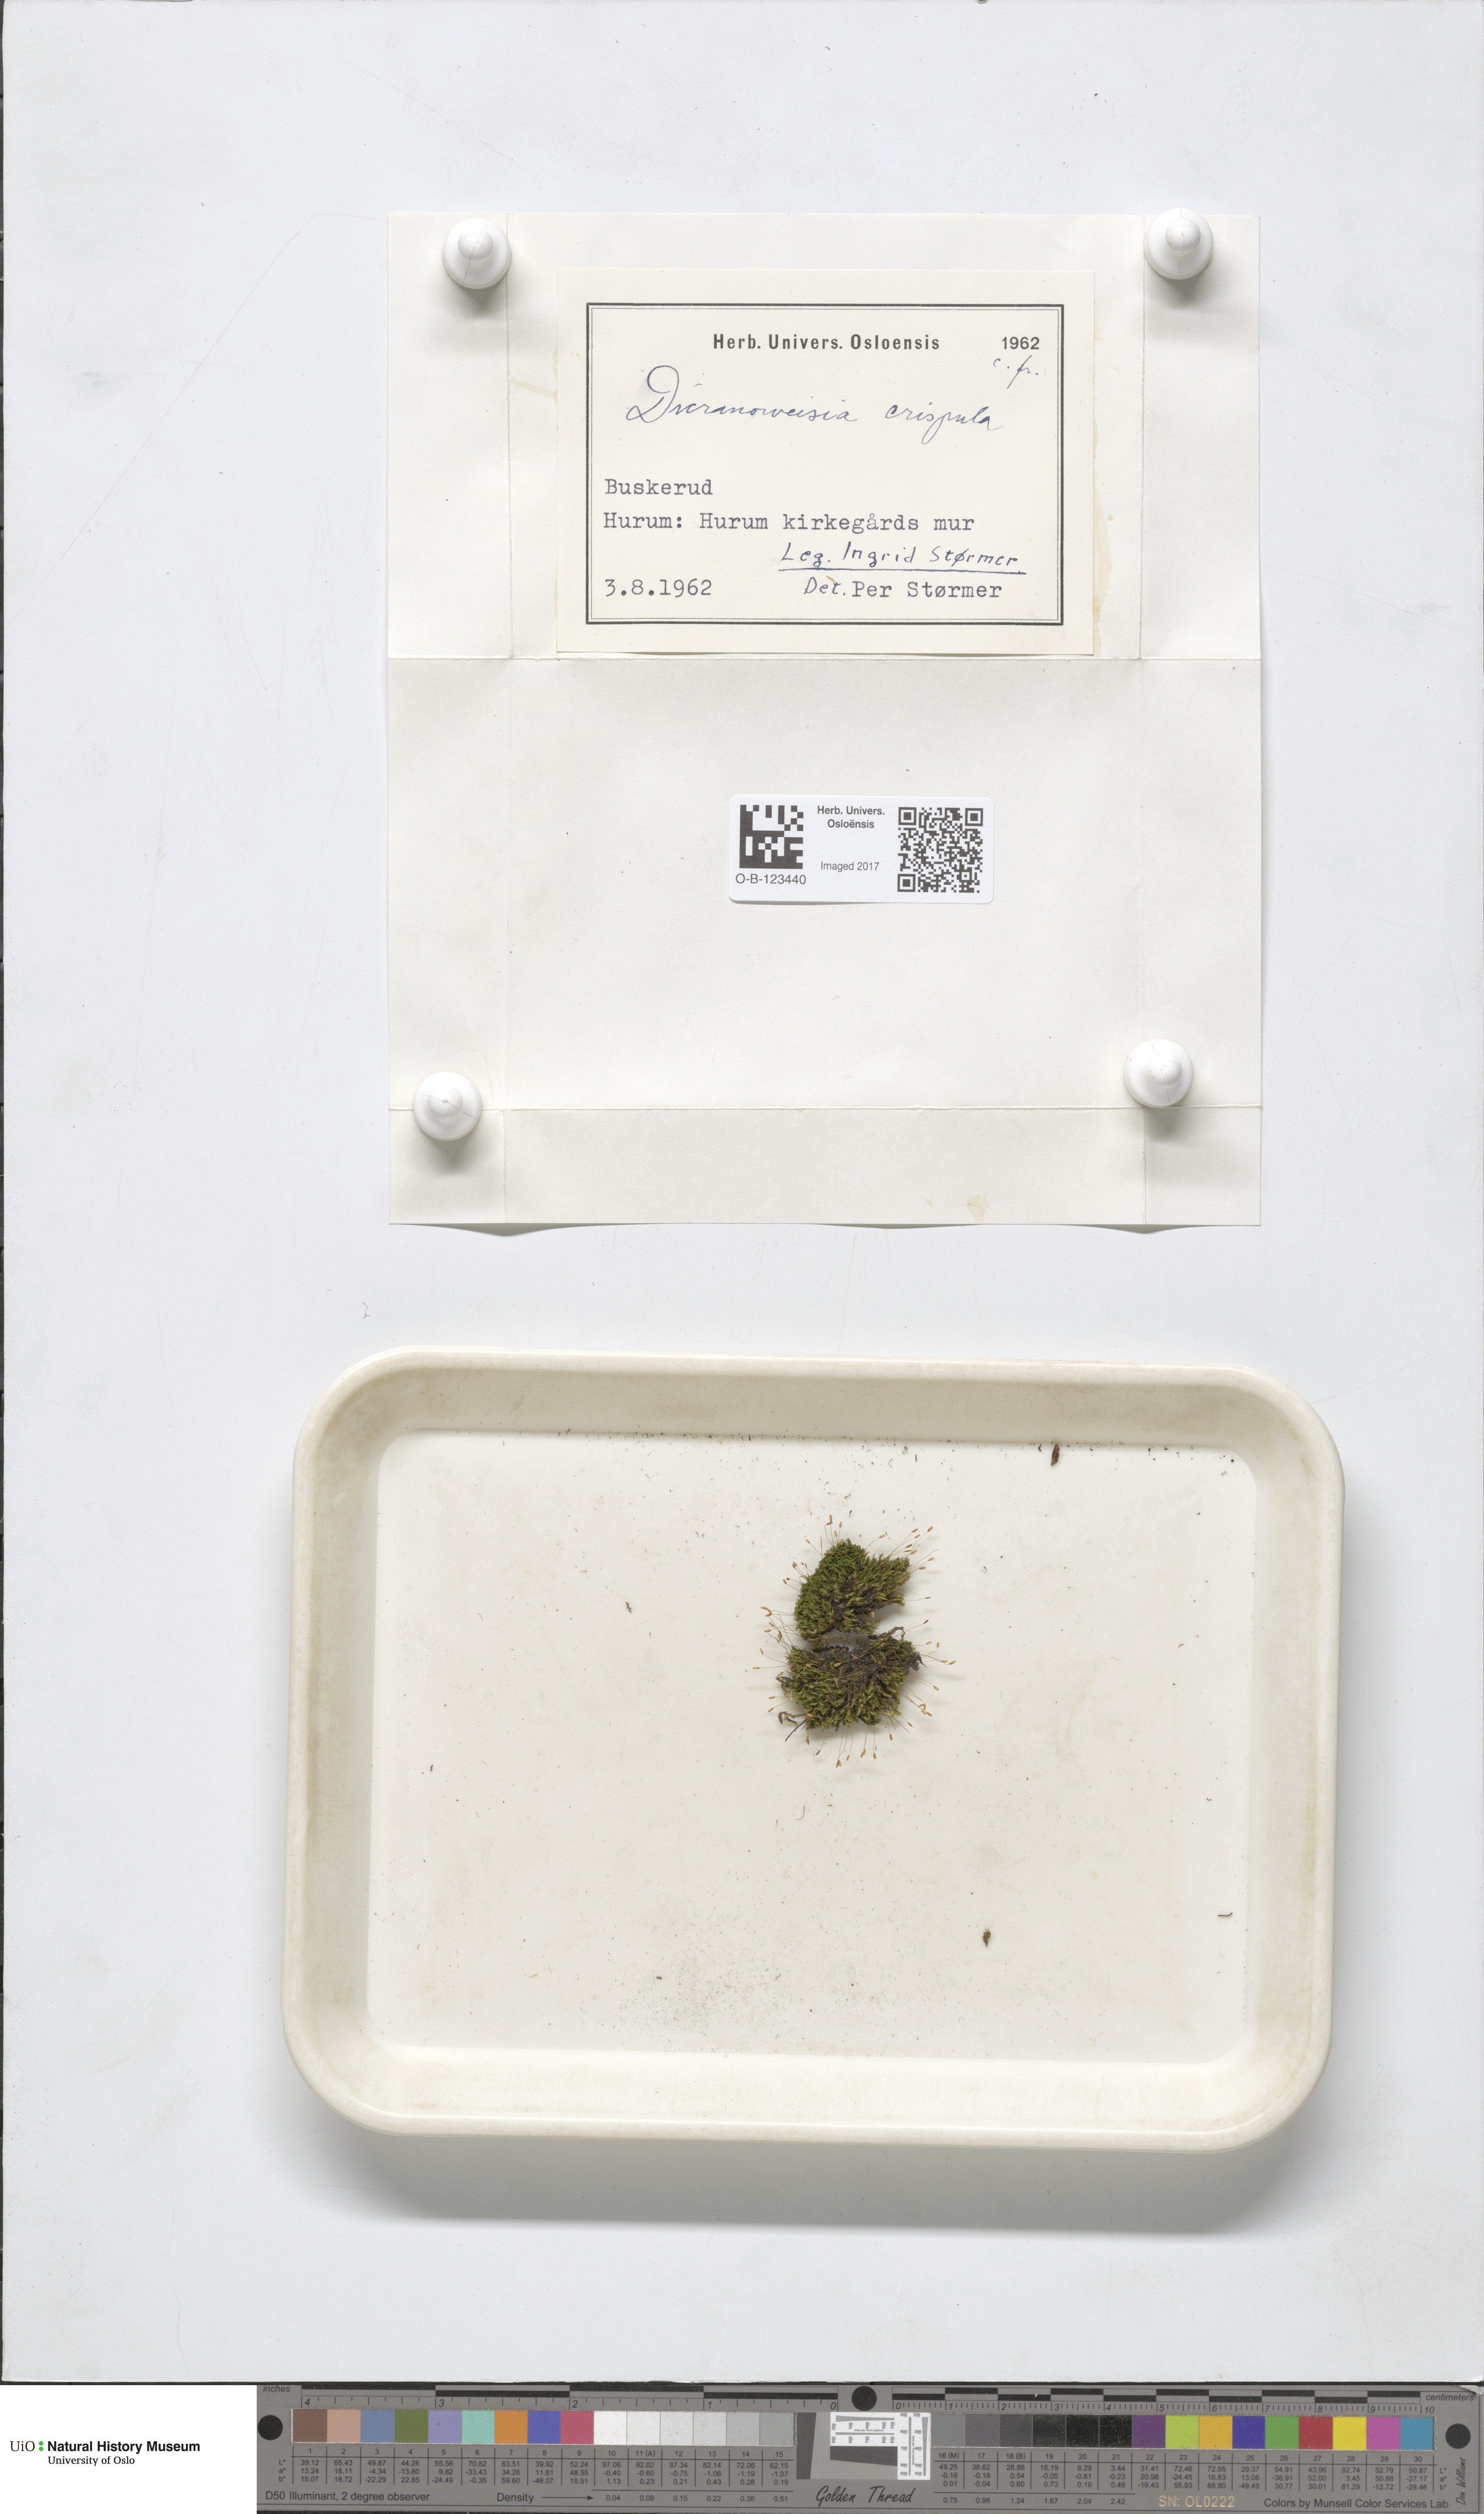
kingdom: Plantae
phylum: Bryophyta
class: Bryopsida
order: Scouleriales
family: Hymenolomataceae
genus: Hymenoloma
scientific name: Hymenoloma crispulum
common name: Mountain pincushion
